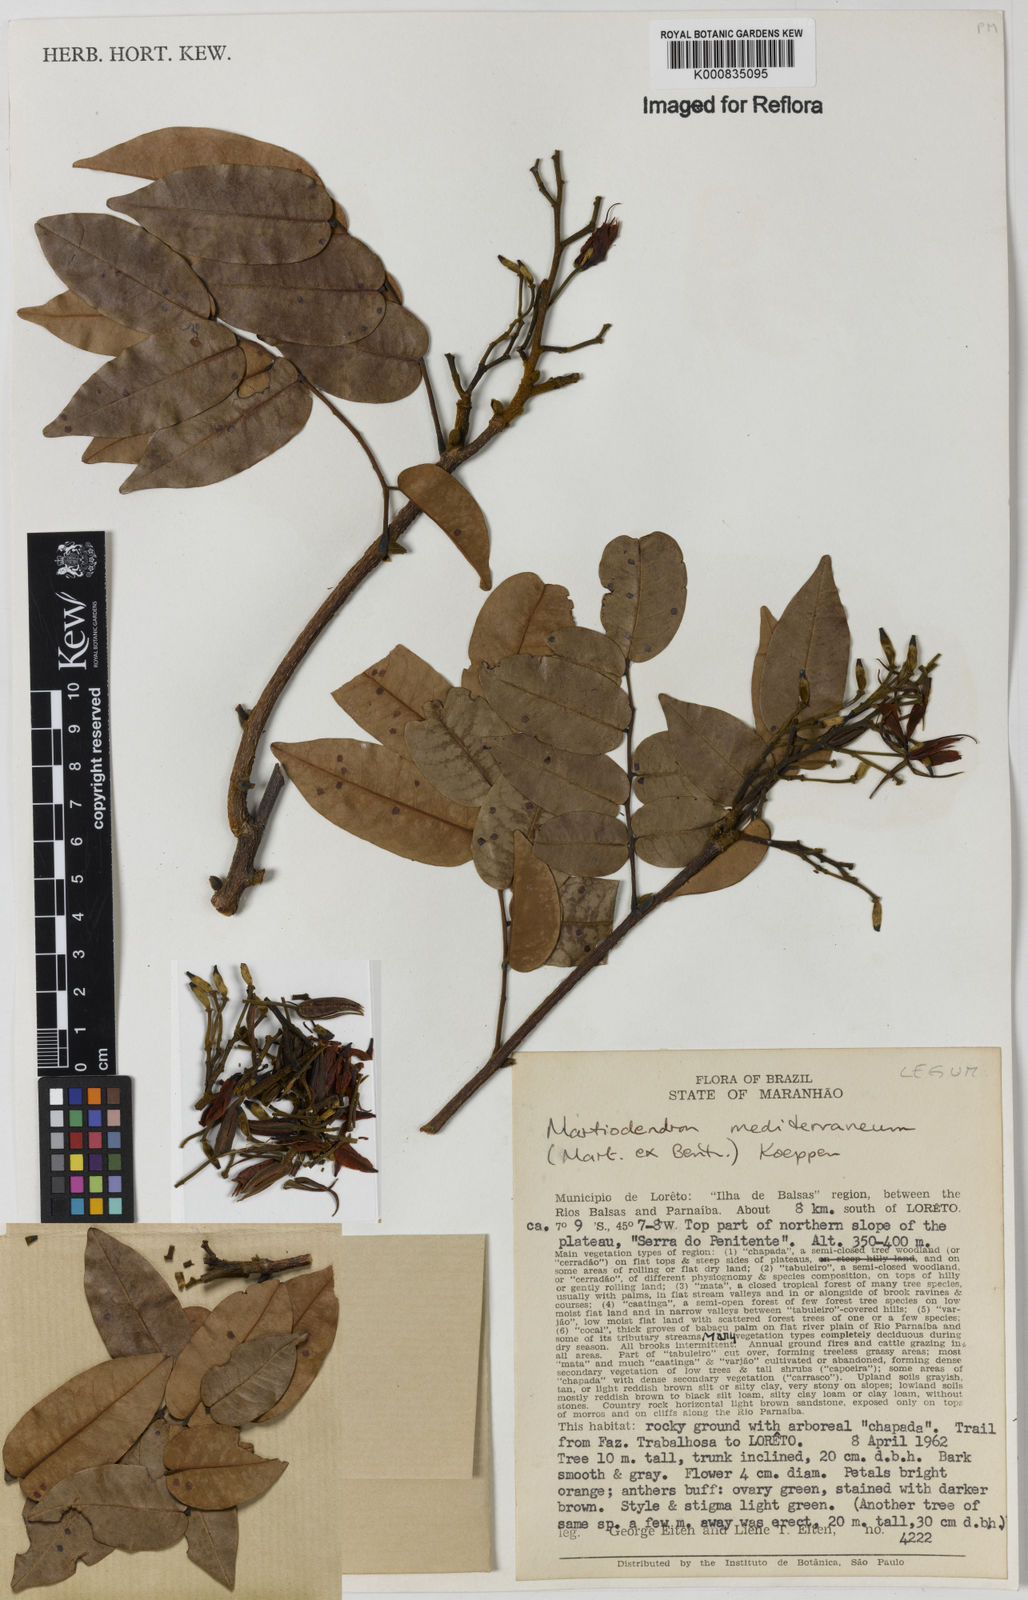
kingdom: Plantae
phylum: Tracheophyta
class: Magnoliopsida
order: Fabales
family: Fabaceae
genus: Martiodendron
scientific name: Martiodendron
